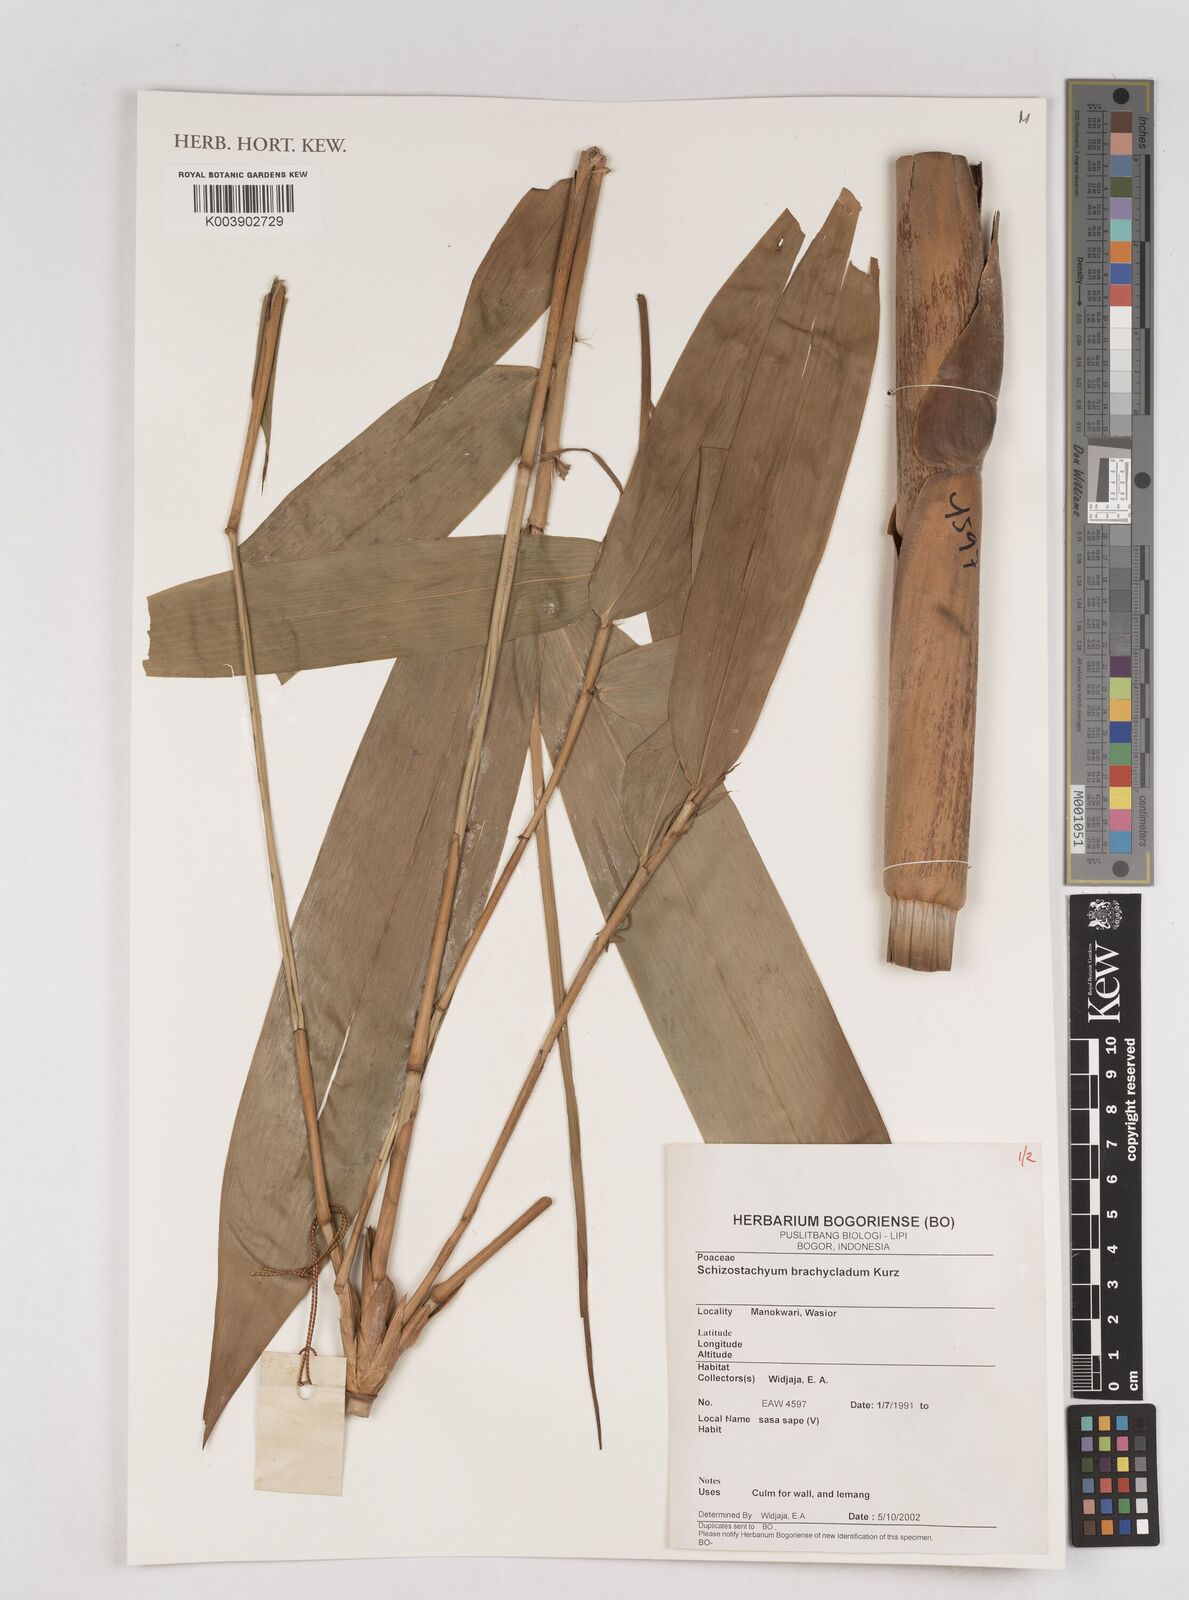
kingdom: Plantae
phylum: Tracheophyta
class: Liliopsida
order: Poales
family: Poaceae
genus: Schizostachyum
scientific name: Schizostachyum brachycladum
